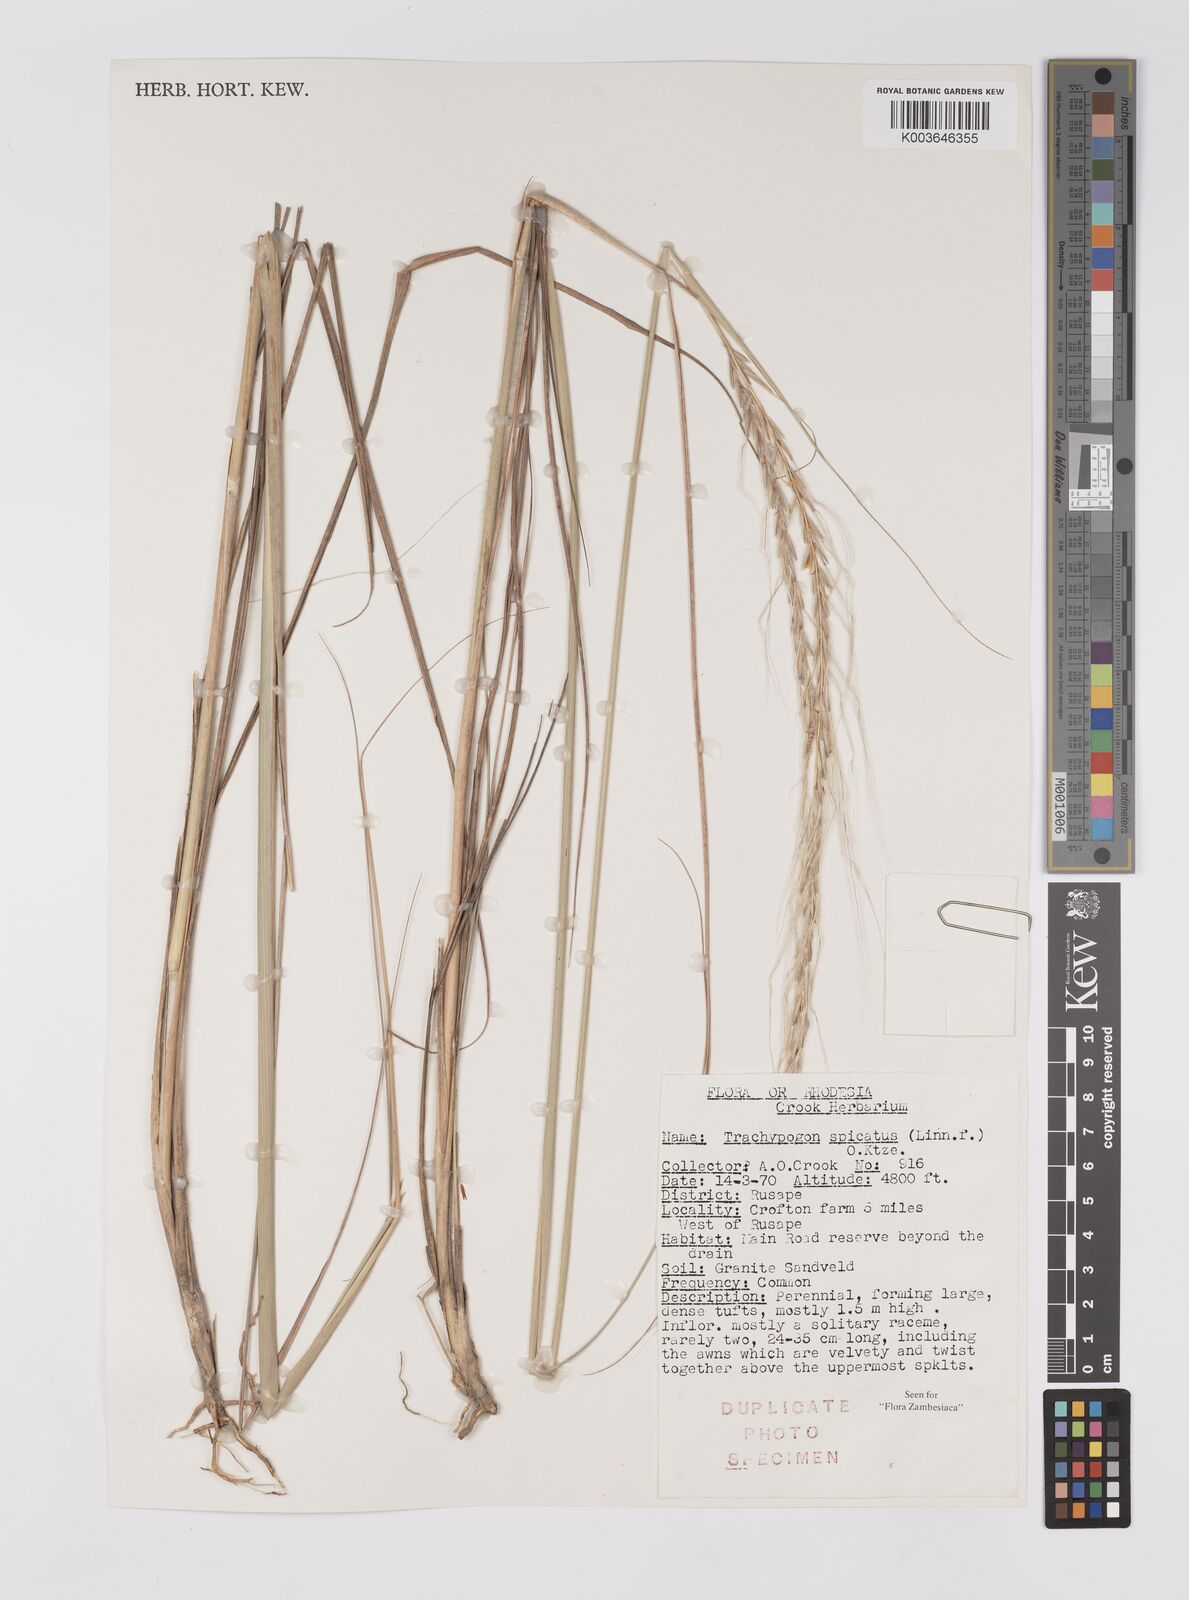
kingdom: Plantae
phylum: Tracheophyta
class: Liliopsida
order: Poales
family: Poaceae
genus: Trachypogon
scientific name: Trachypogon spicatus
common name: Crinkle-awn
